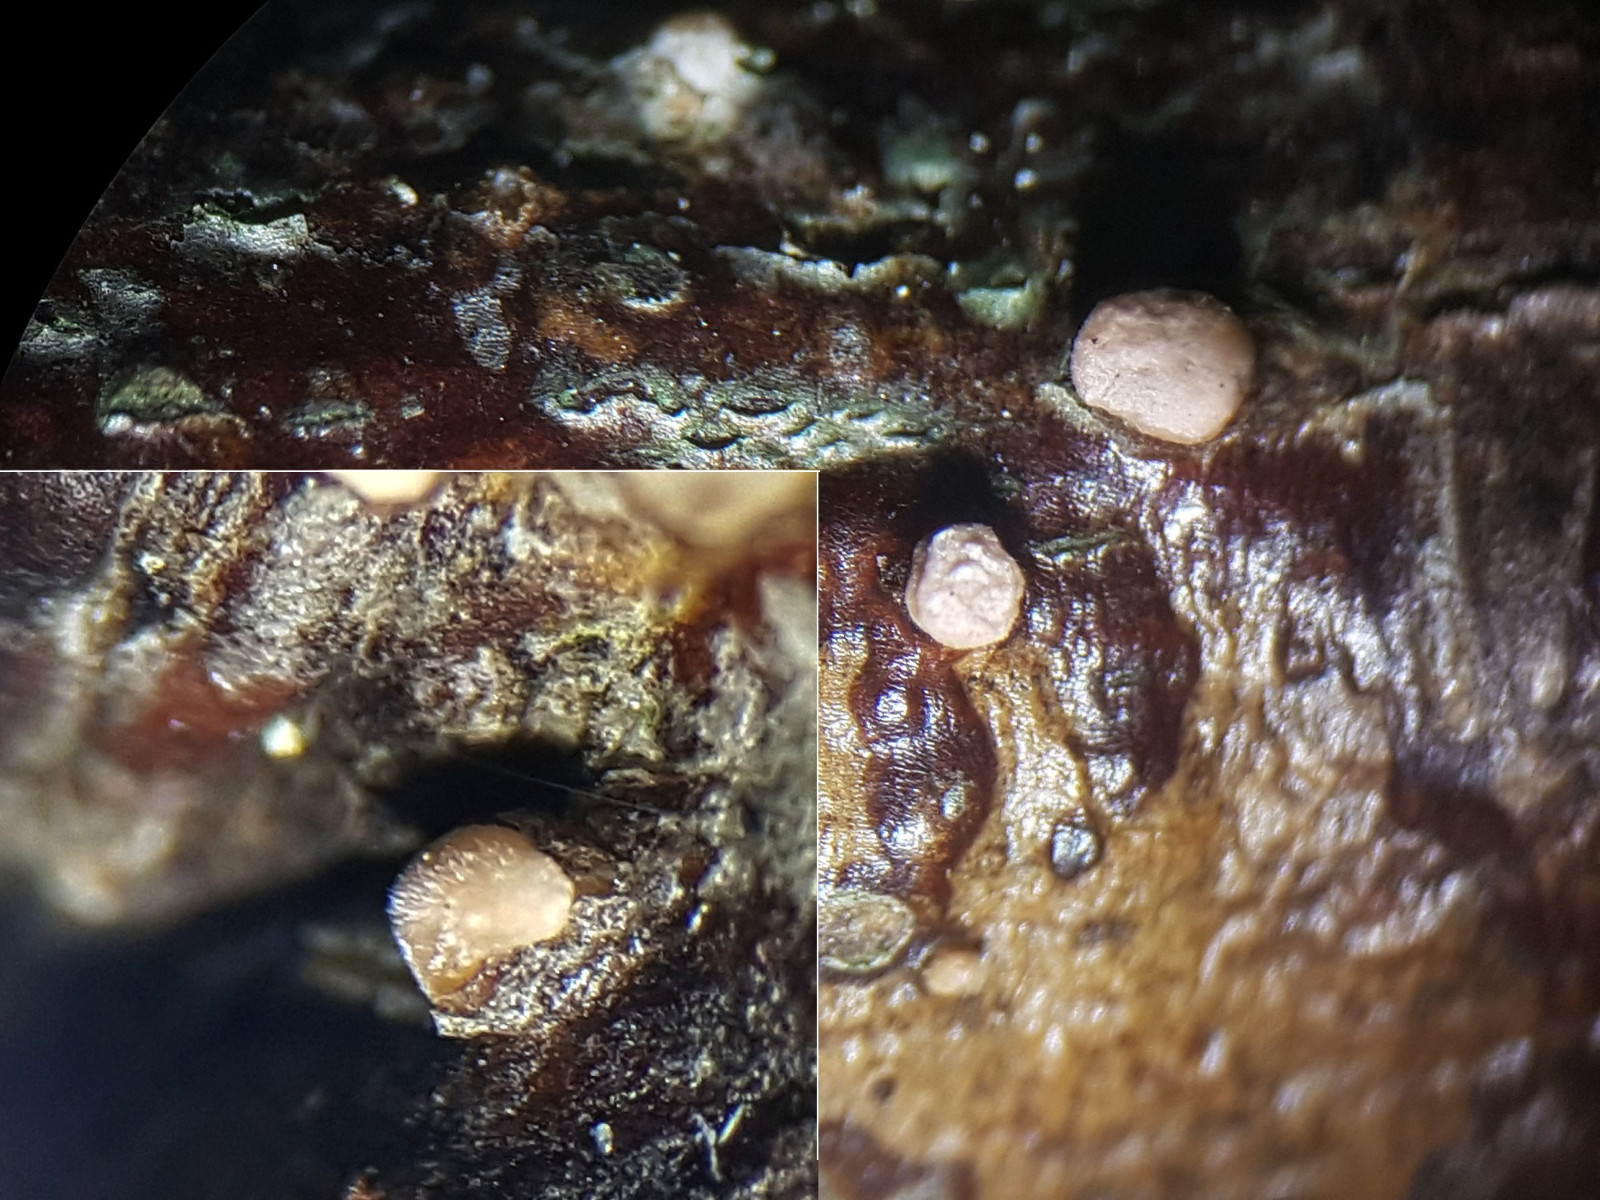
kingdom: Fungi
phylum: Ascomycota
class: Sordariomycetes
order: Hypocreales
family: Nectriaceae
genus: Nectria
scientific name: Nectria
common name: cinnobersvamp
